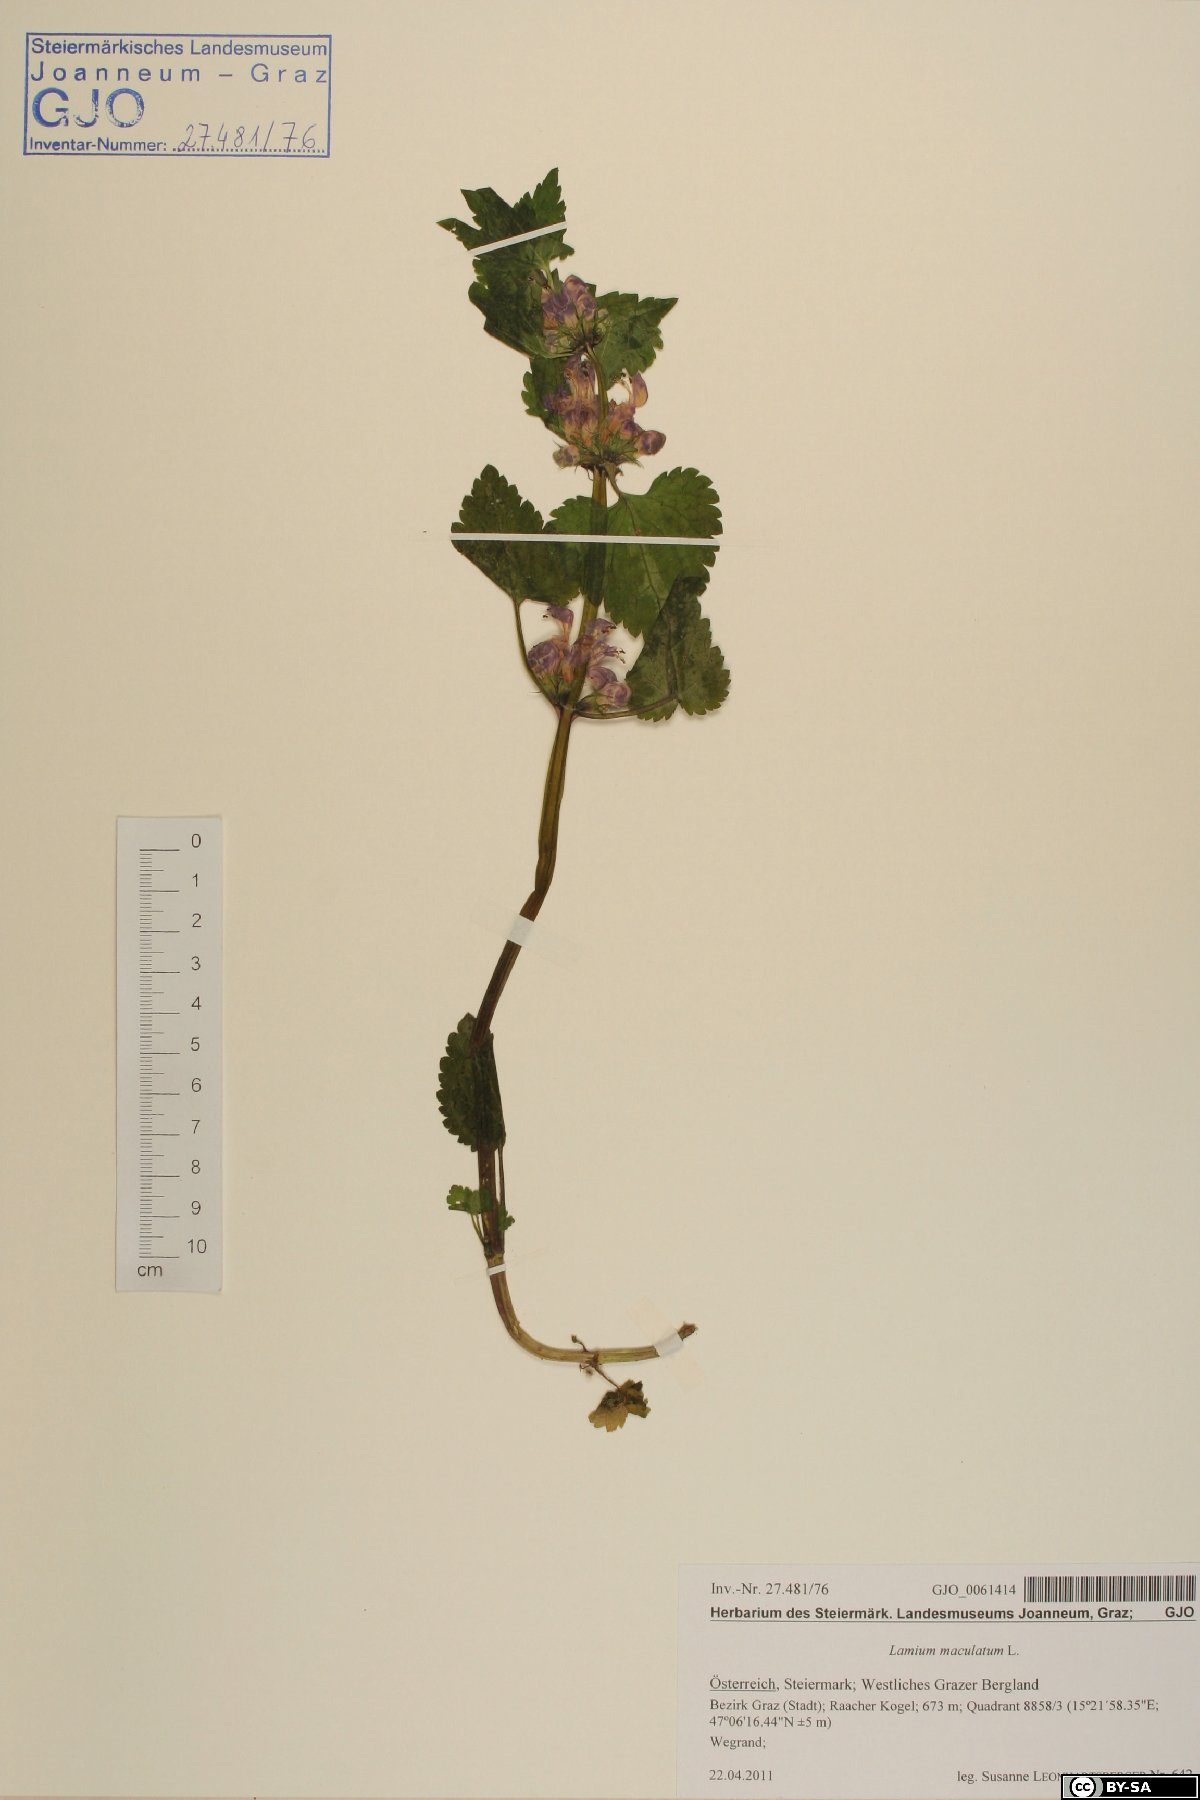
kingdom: Plantae
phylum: Tracheophyta
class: Magnoliopsida
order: Lamiales
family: Lamiaceae
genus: Lamium
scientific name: Lamium maculatum
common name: Spotted dead-nettle
